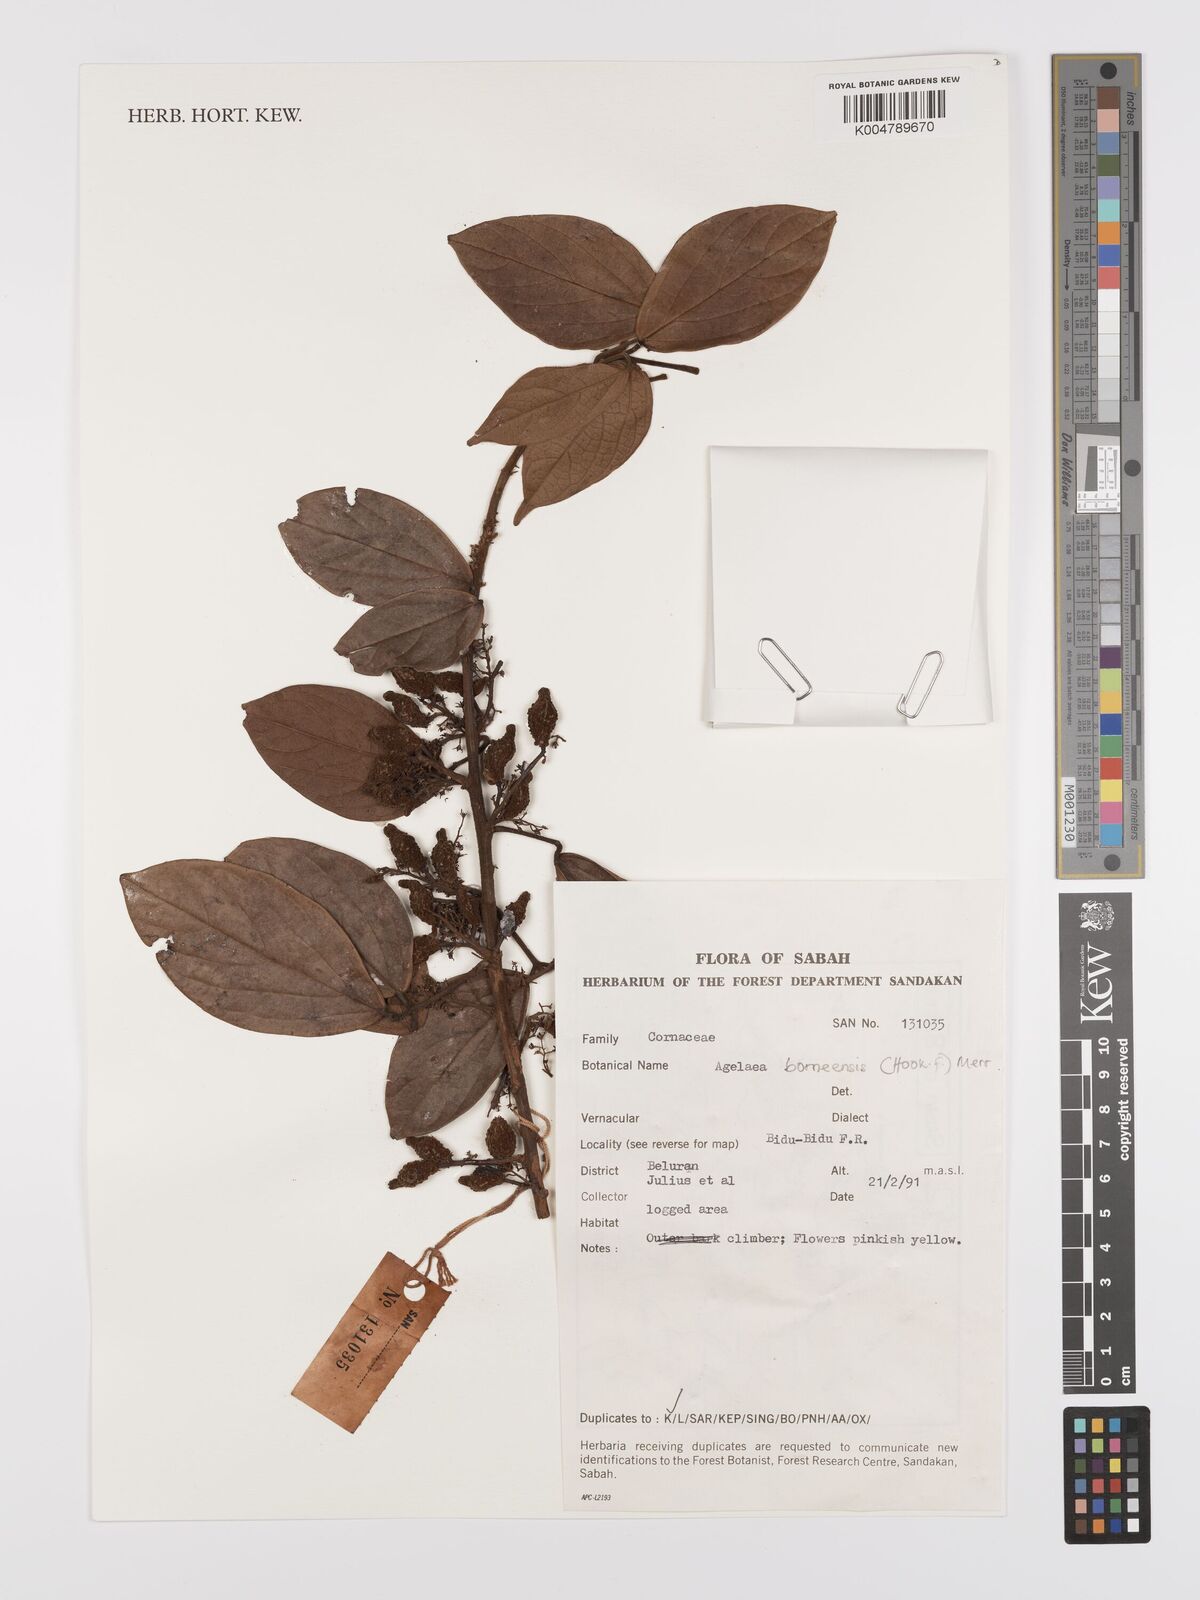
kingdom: Plantae
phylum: Tracheophyta
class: Magnoliopsida
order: Oxalidales
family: Connaraceae
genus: Agelaea
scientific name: Agelaea borneensis
